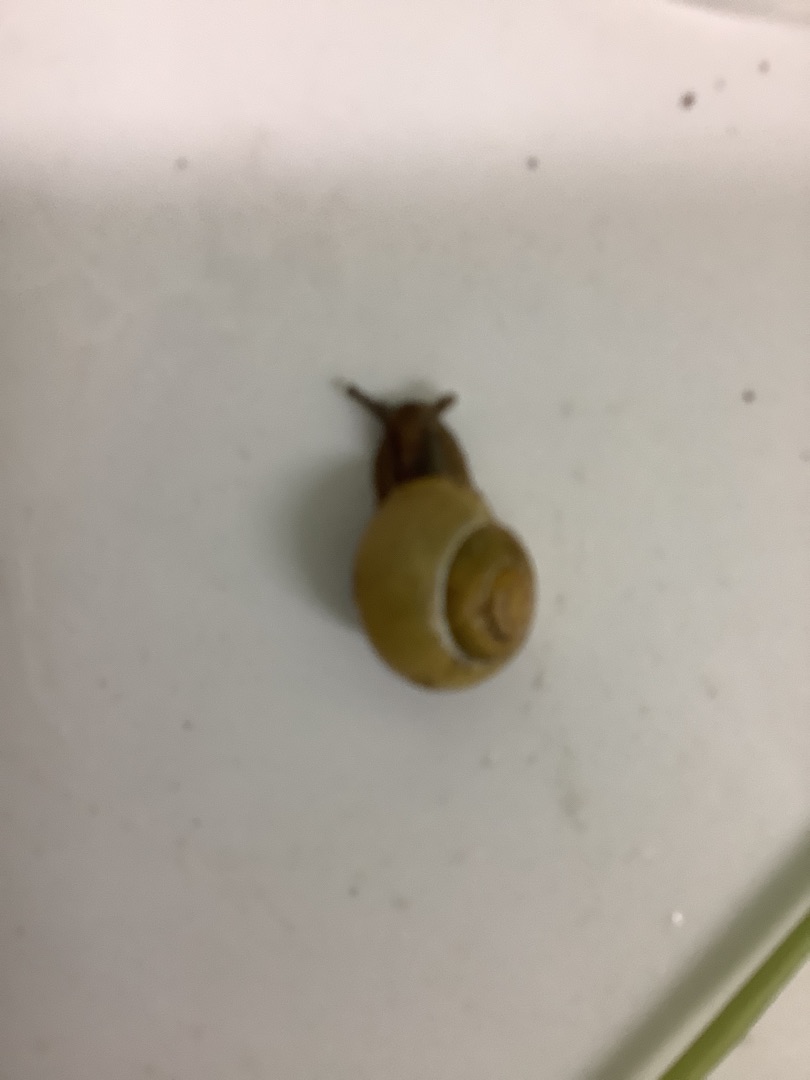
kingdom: Animalia
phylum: Mollusca
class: Gastropoda
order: Stylommatophora
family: Helicidae
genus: Cepaea
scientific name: Cepaea hortensis
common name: Havesnegl
